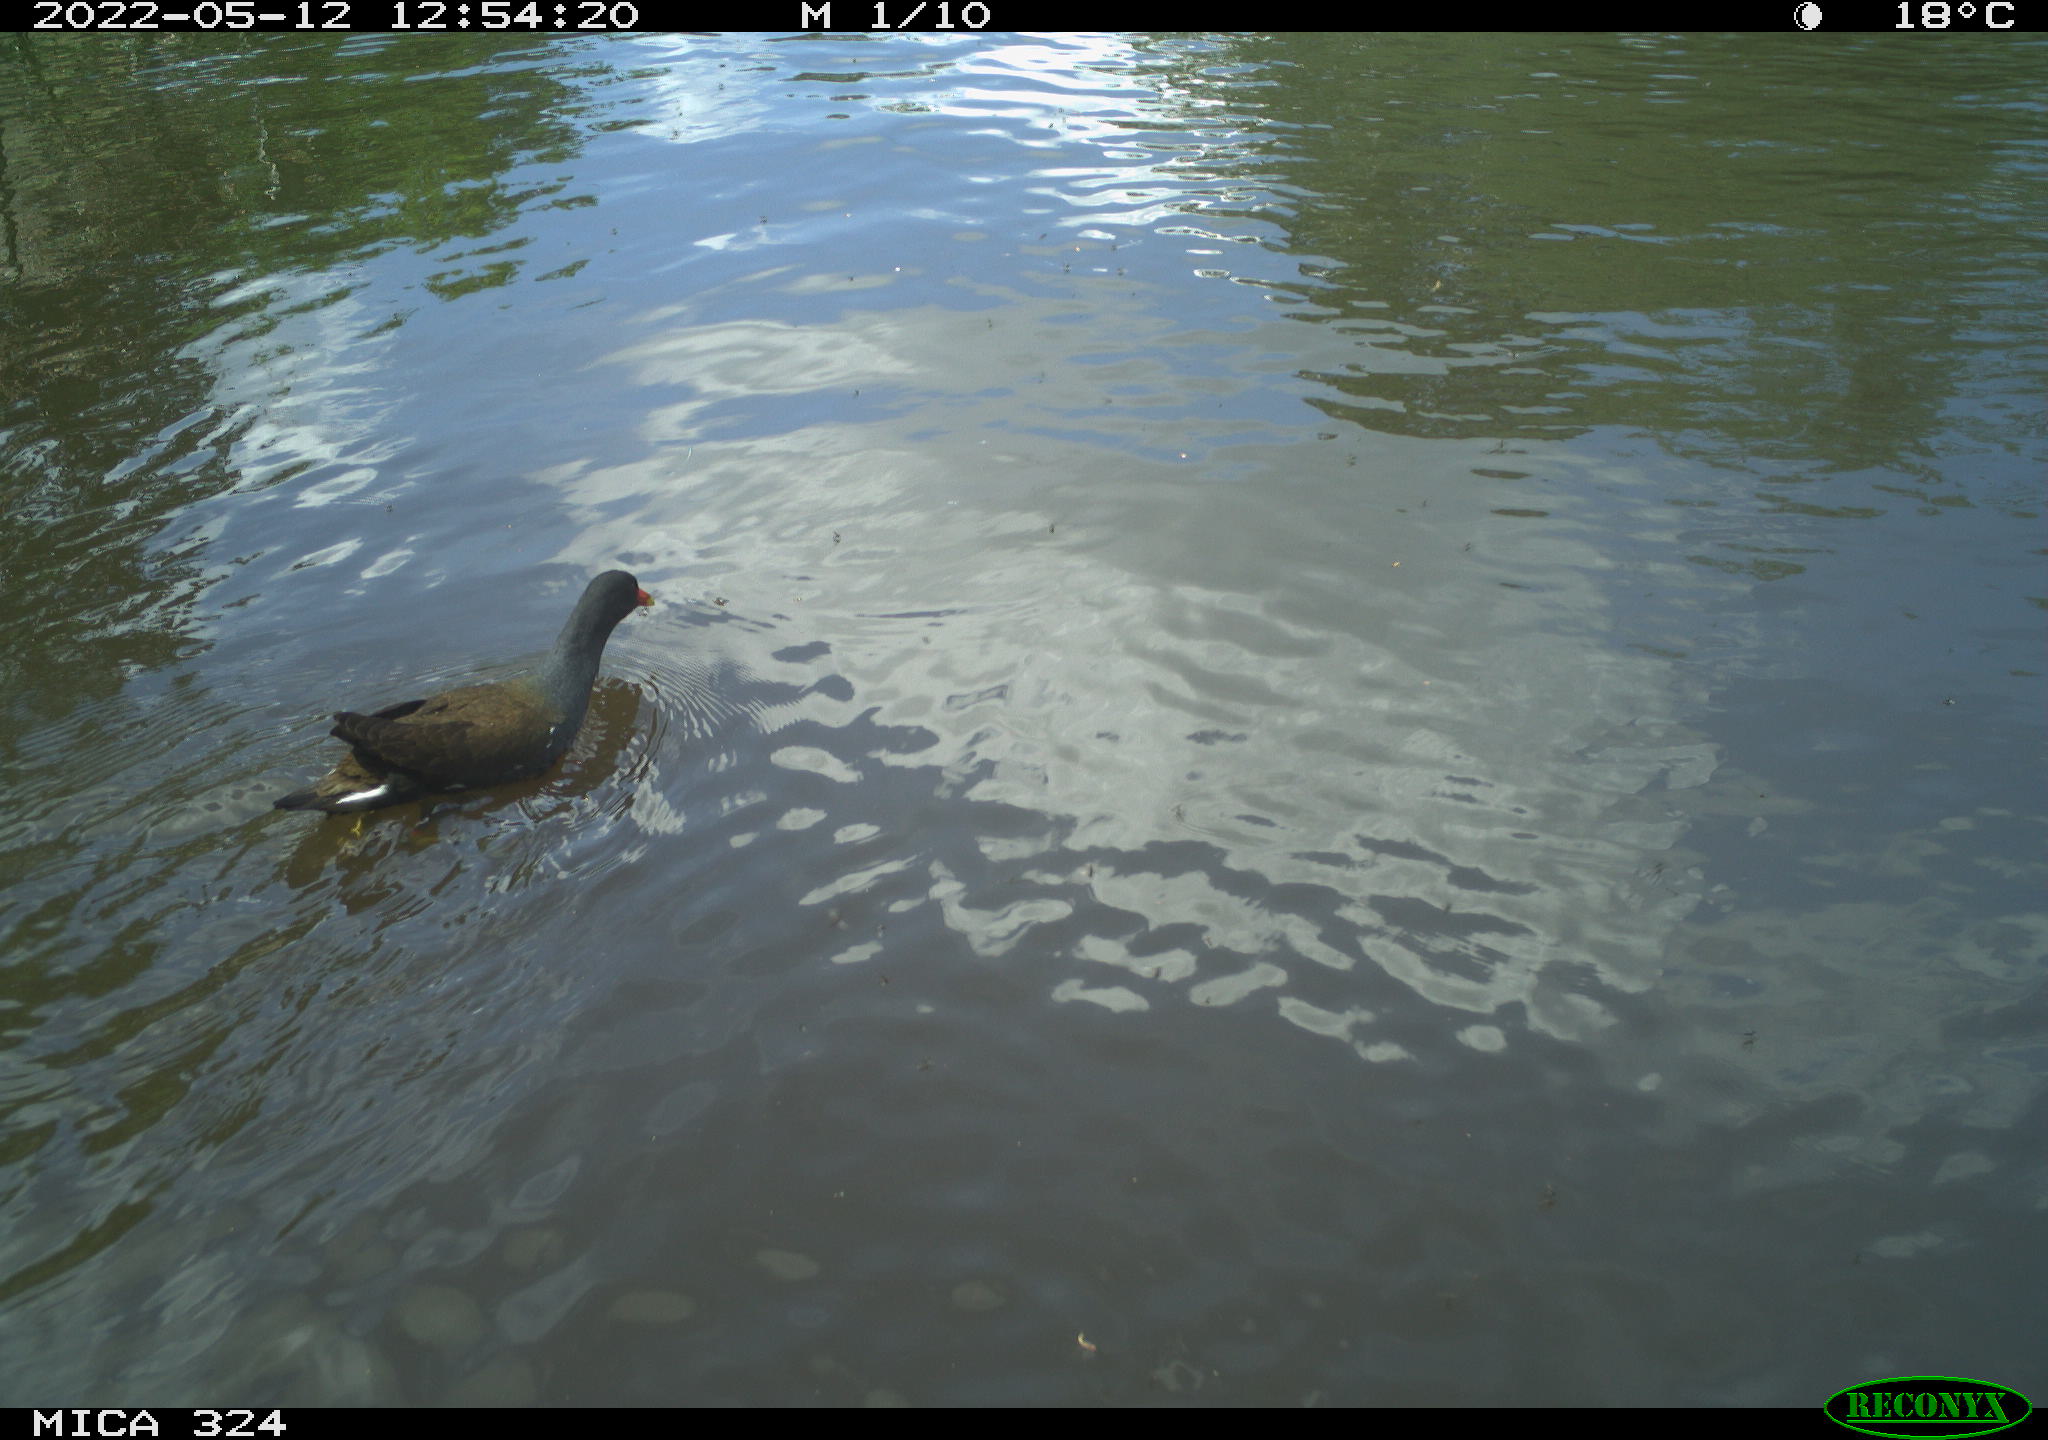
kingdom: Animalia
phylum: Chordata
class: Aves
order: Gruiformes
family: Rallidae
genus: Gallinula
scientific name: Gallinula chloropus
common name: Common moorhen
